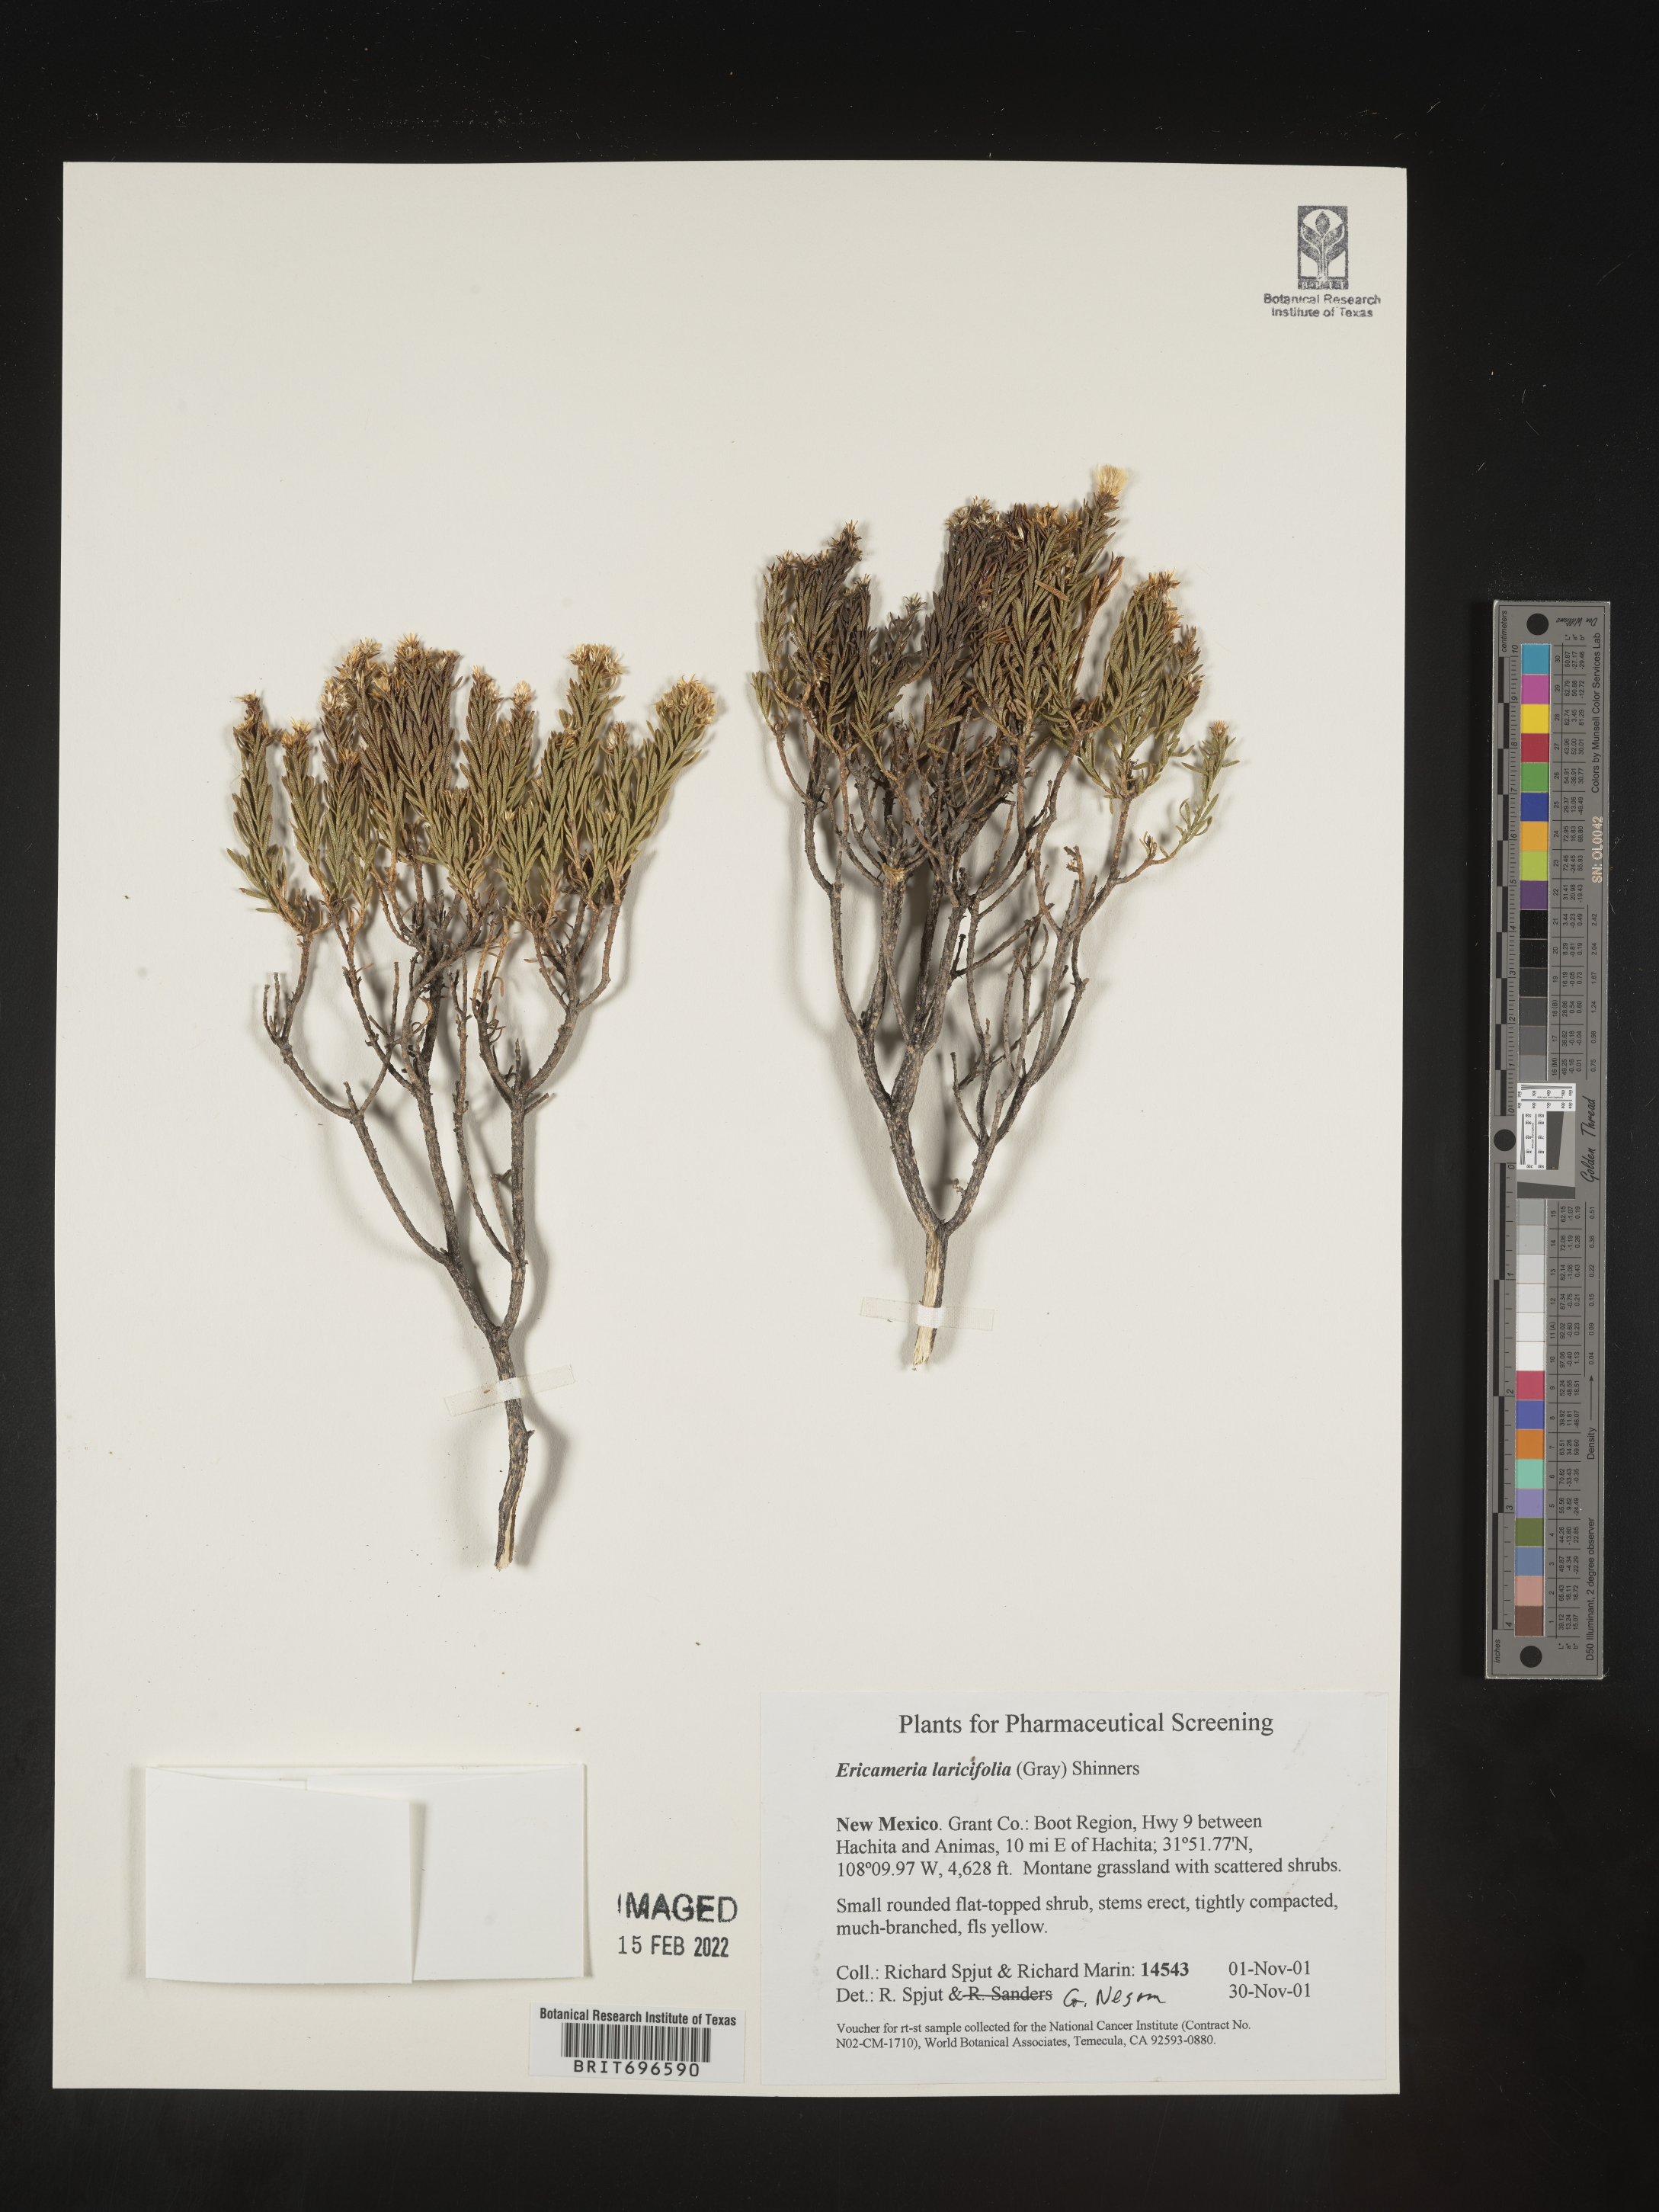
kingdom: Plantae
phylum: Tracheophyta
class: Magnoliopsida
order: Asterales
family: Asteraceae
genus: Ericameria
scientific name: Ericameria laricifolia
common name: Turpentine-bush
